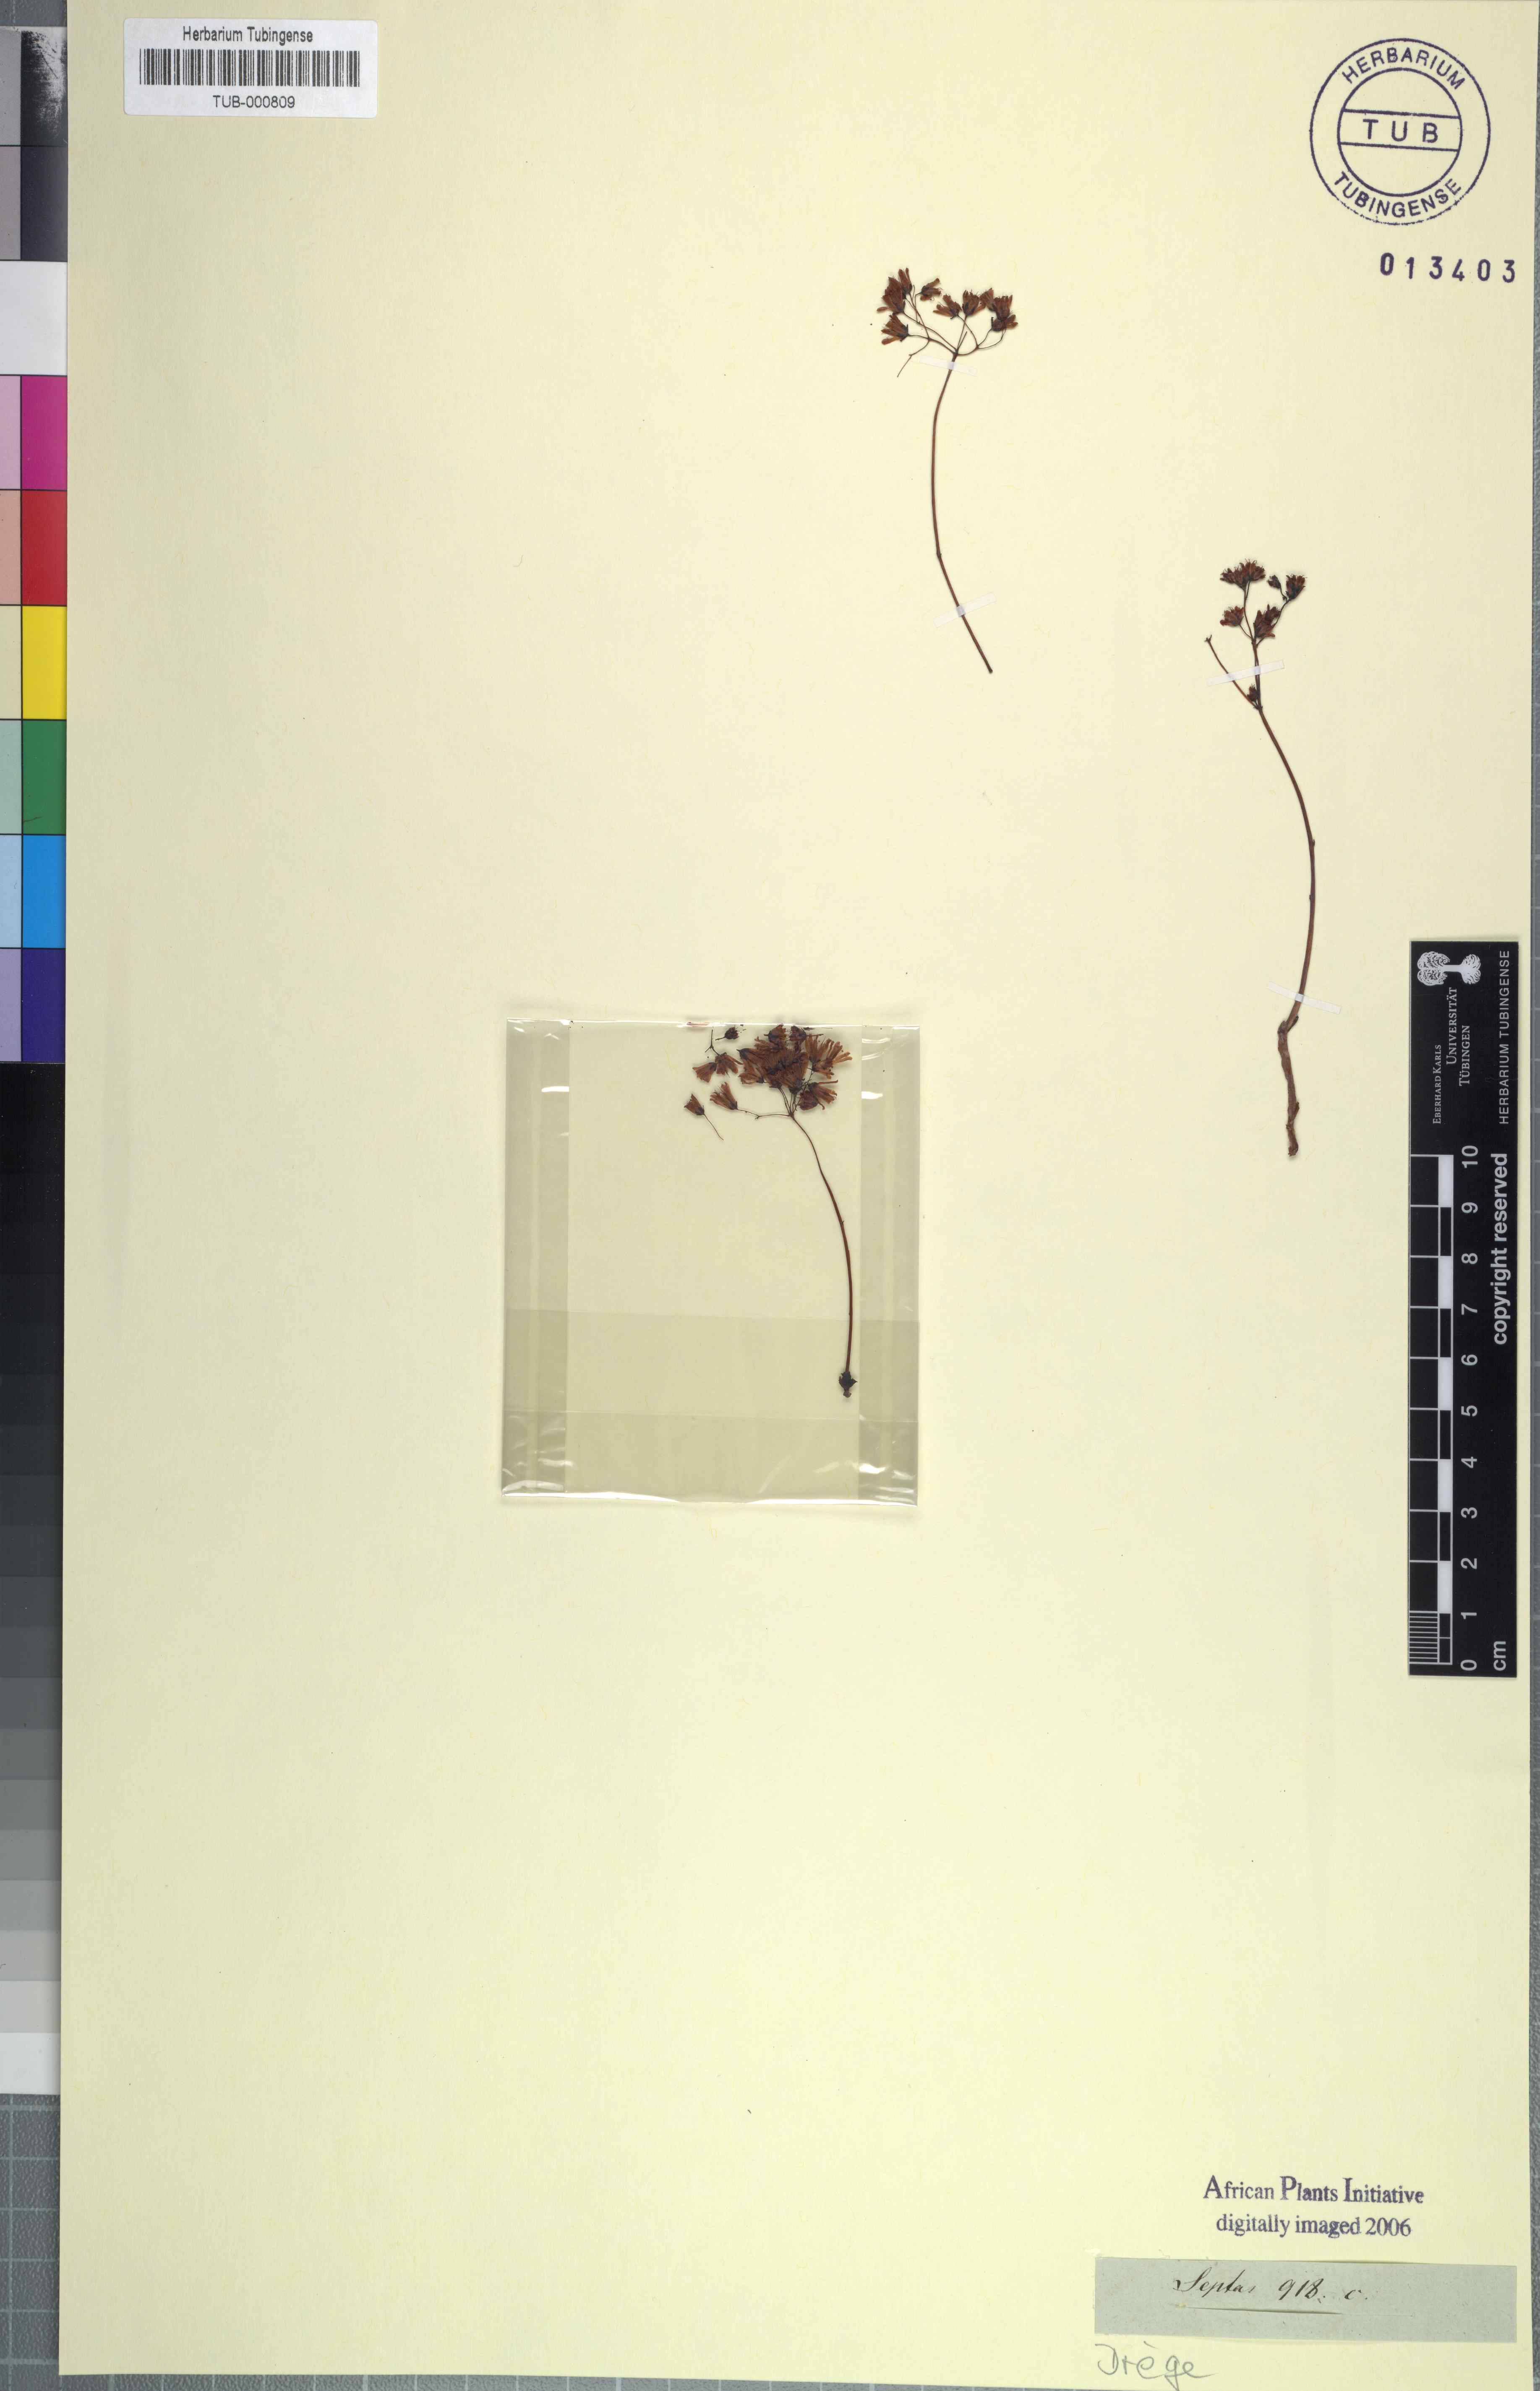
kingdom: Plantae
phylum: Tracheophyta
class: Magnoliopsida
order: Saxifragales
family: Crassulaceae
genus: Crassula
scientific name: Crassula
